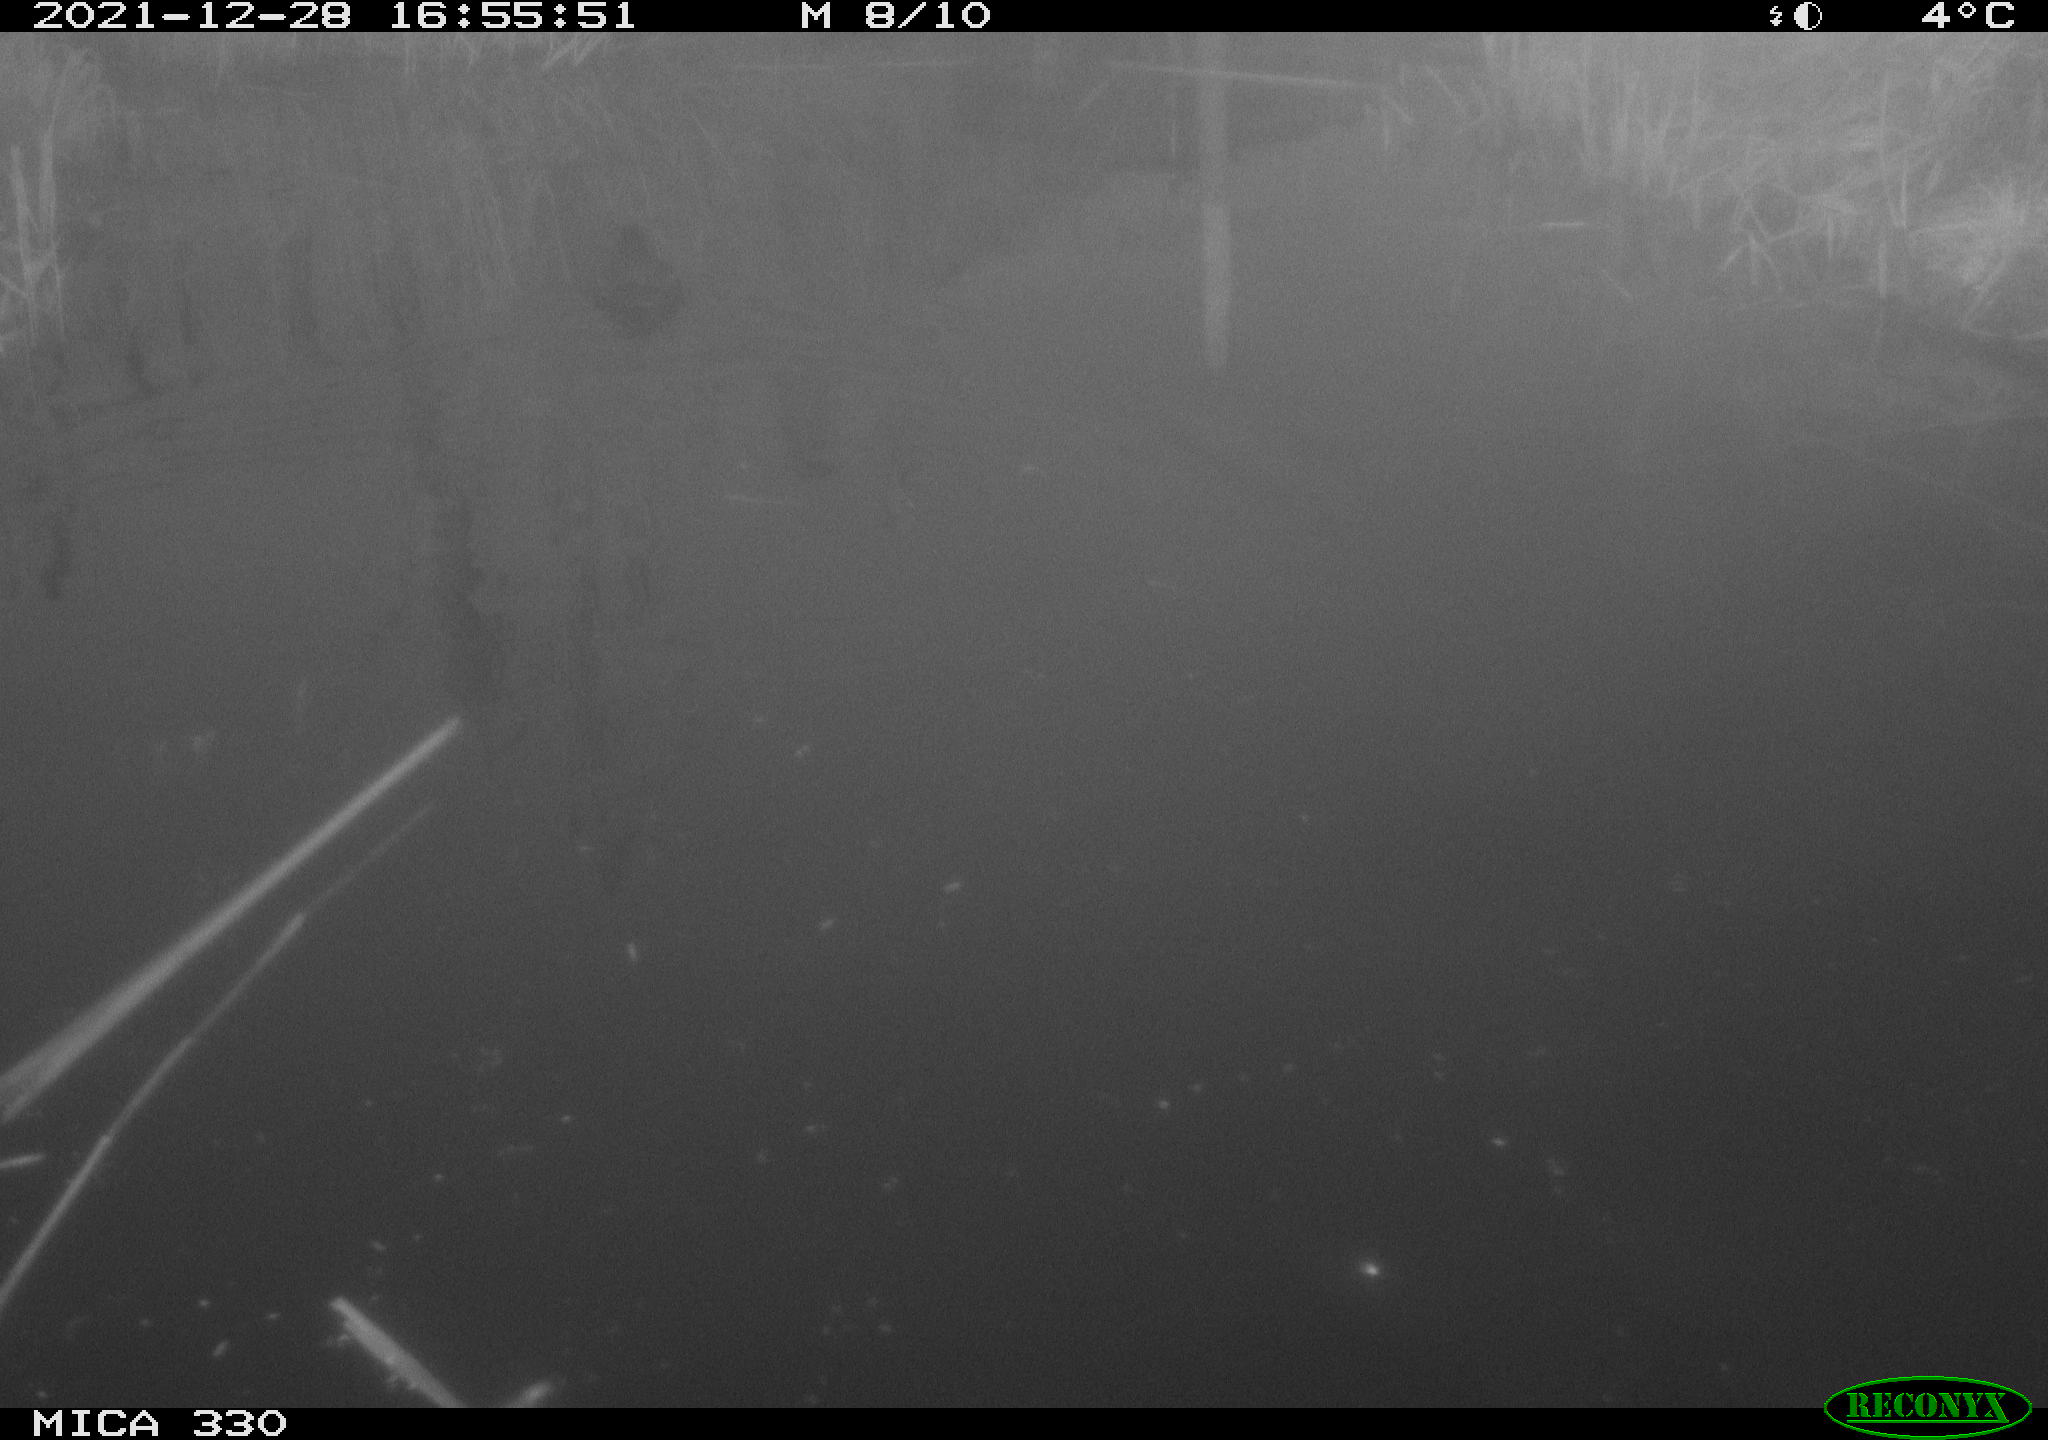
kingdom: Animalia
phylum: Chordata
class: Aves
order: Gruiformes
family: Rallidae
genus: Gallinula
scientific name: Gallinula chloropus
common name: Common moorhen
